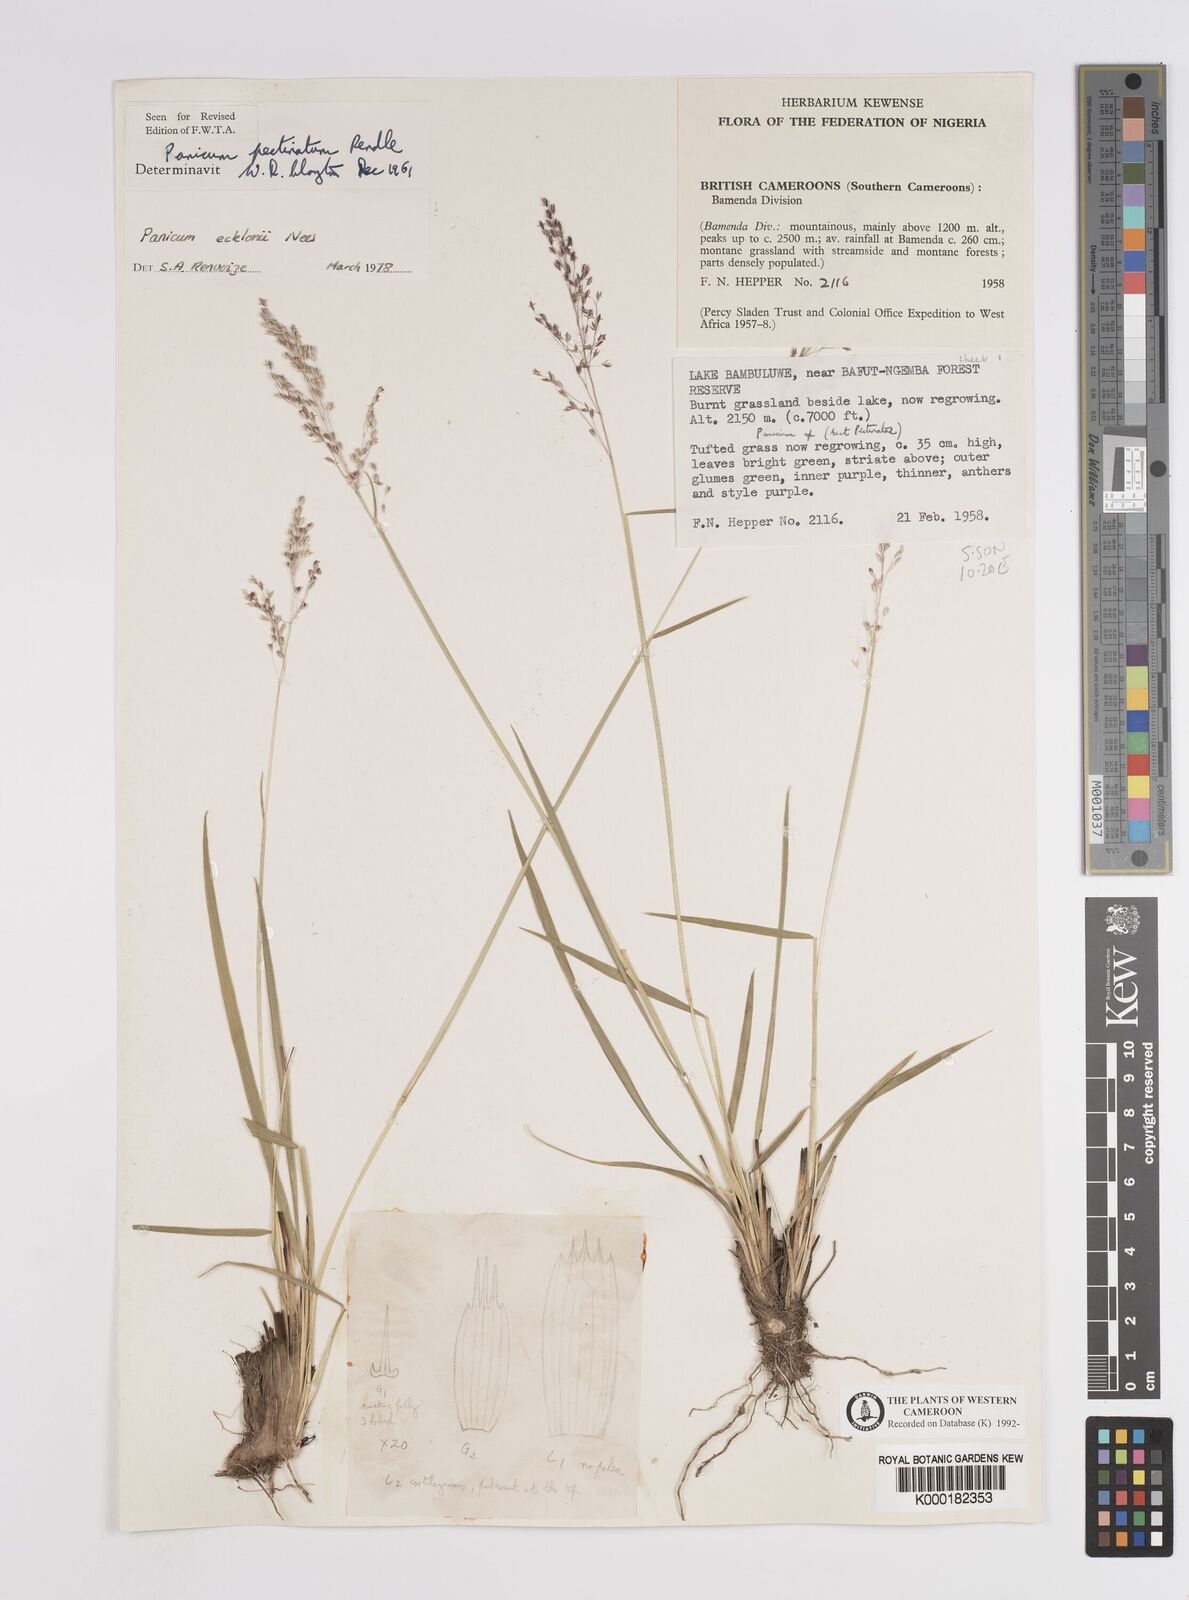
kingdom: Plantae
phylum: Tracheophyta
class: Liliopsida
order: Poales
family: Poaceae
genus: Adenochloa
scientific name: Adenochloa ecklonii
